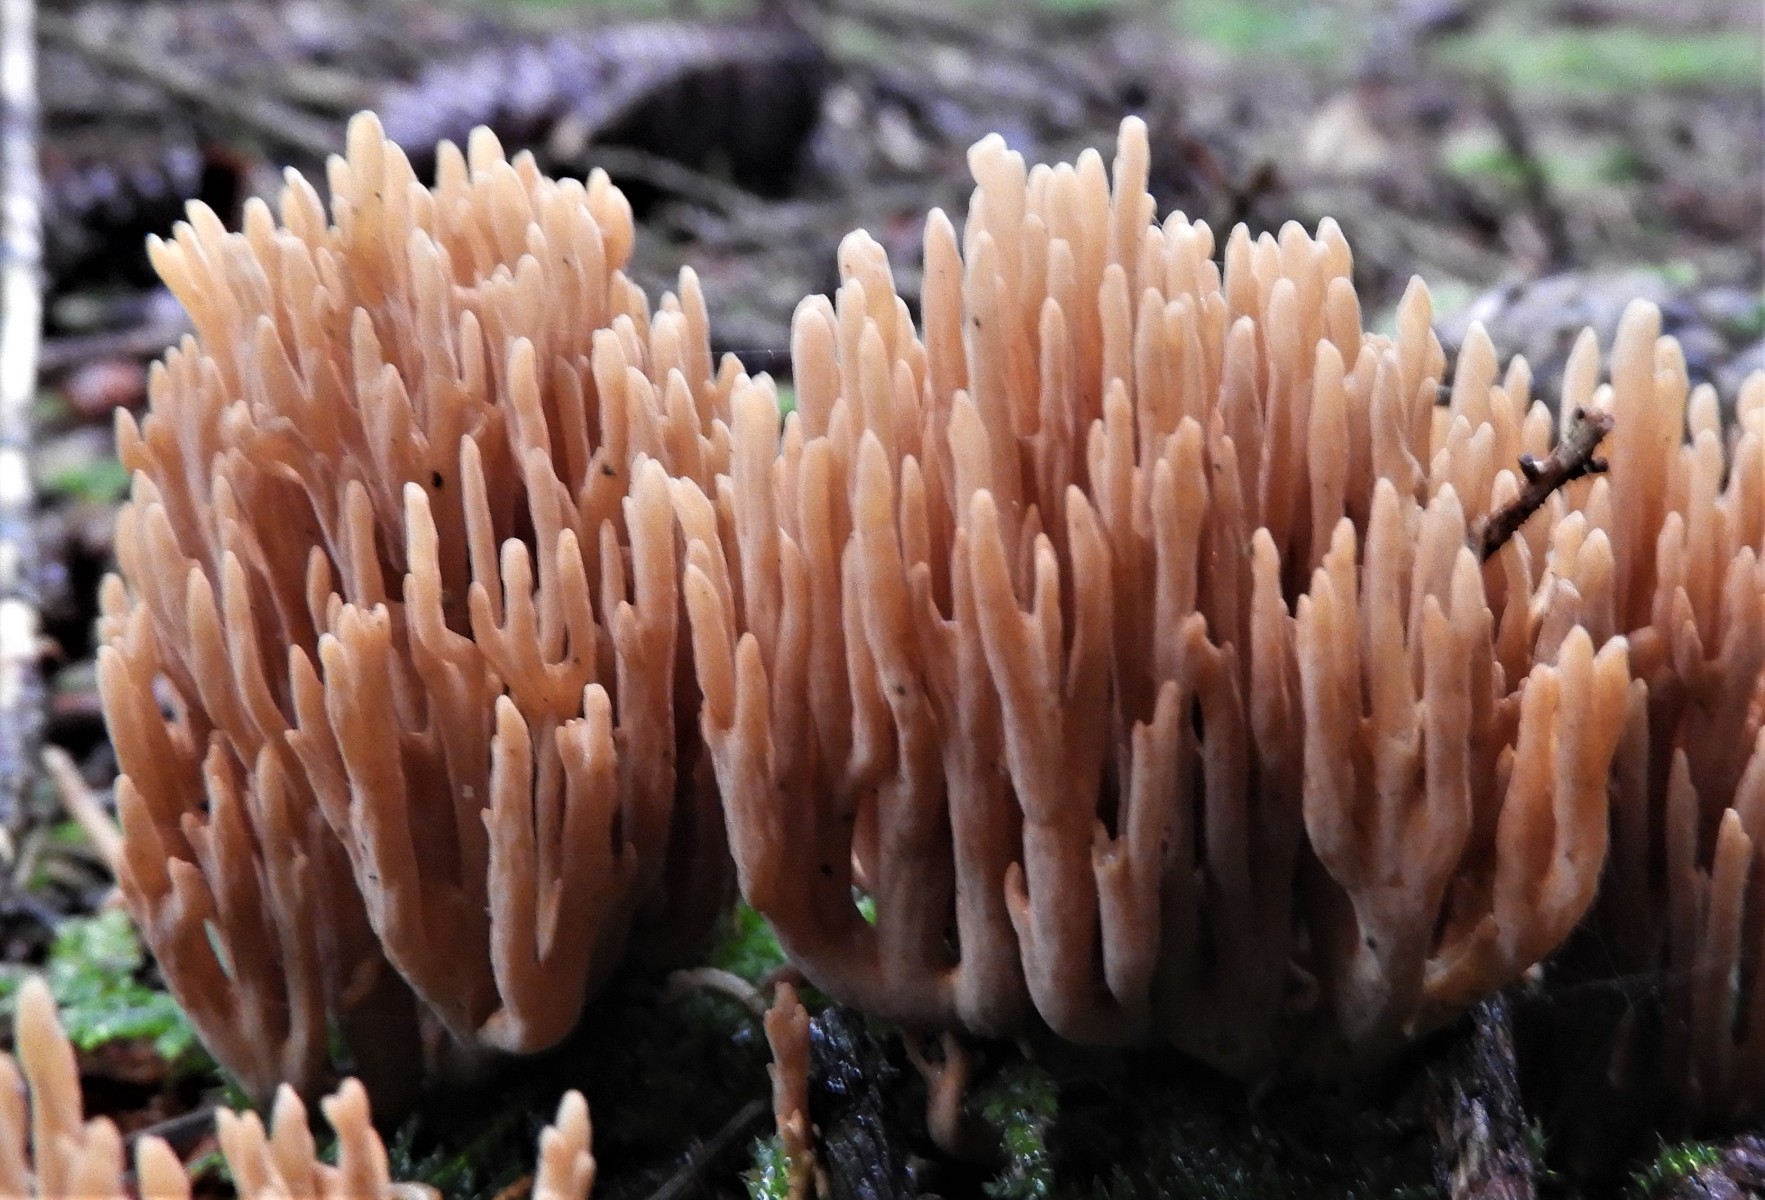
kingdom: Fungi
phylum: Basidiomycota
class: Agaricomycetes
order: Gomphales
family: Gomphaceae
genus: Phaeoclavulina
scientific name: Phaeoclavulina eumorpha
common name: gran-koralsvamp
